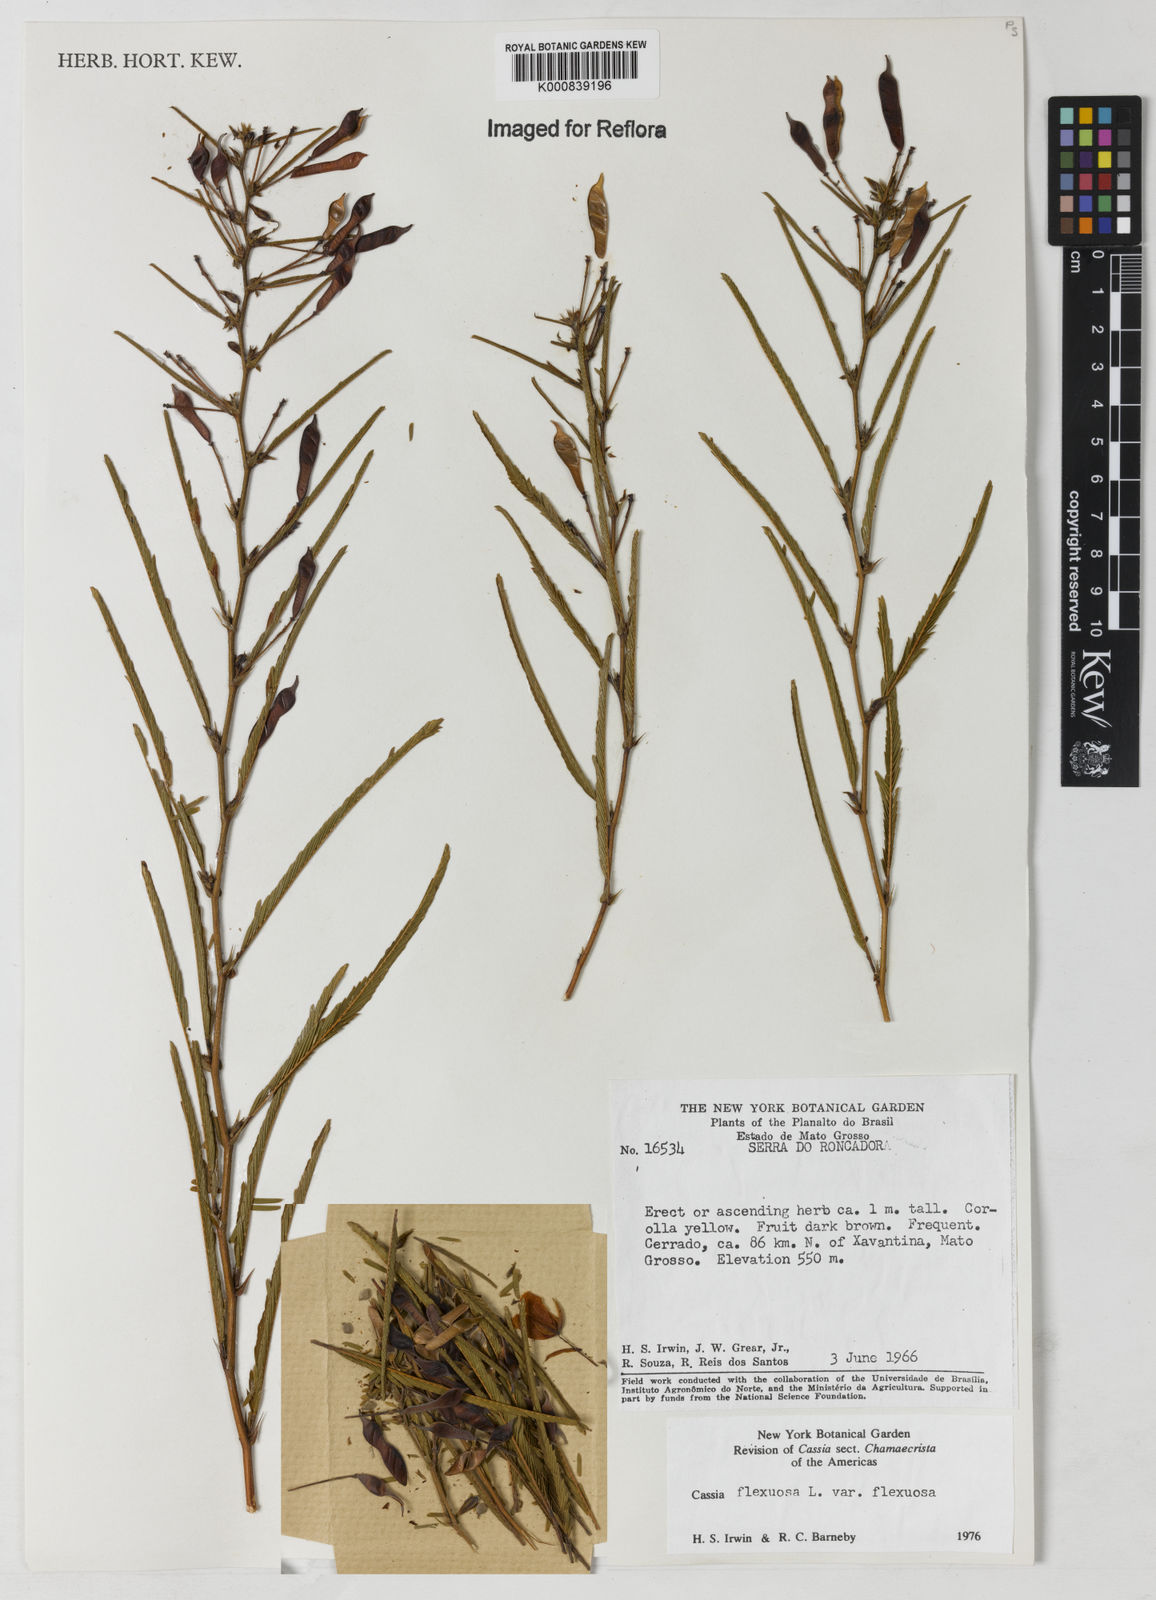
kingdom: Plantae
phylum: Tracheophyta
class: Magnoliopsida
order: Fabales
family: Fabaceae
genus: Chamaecrista
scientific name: Chamaecrista flexuosa
